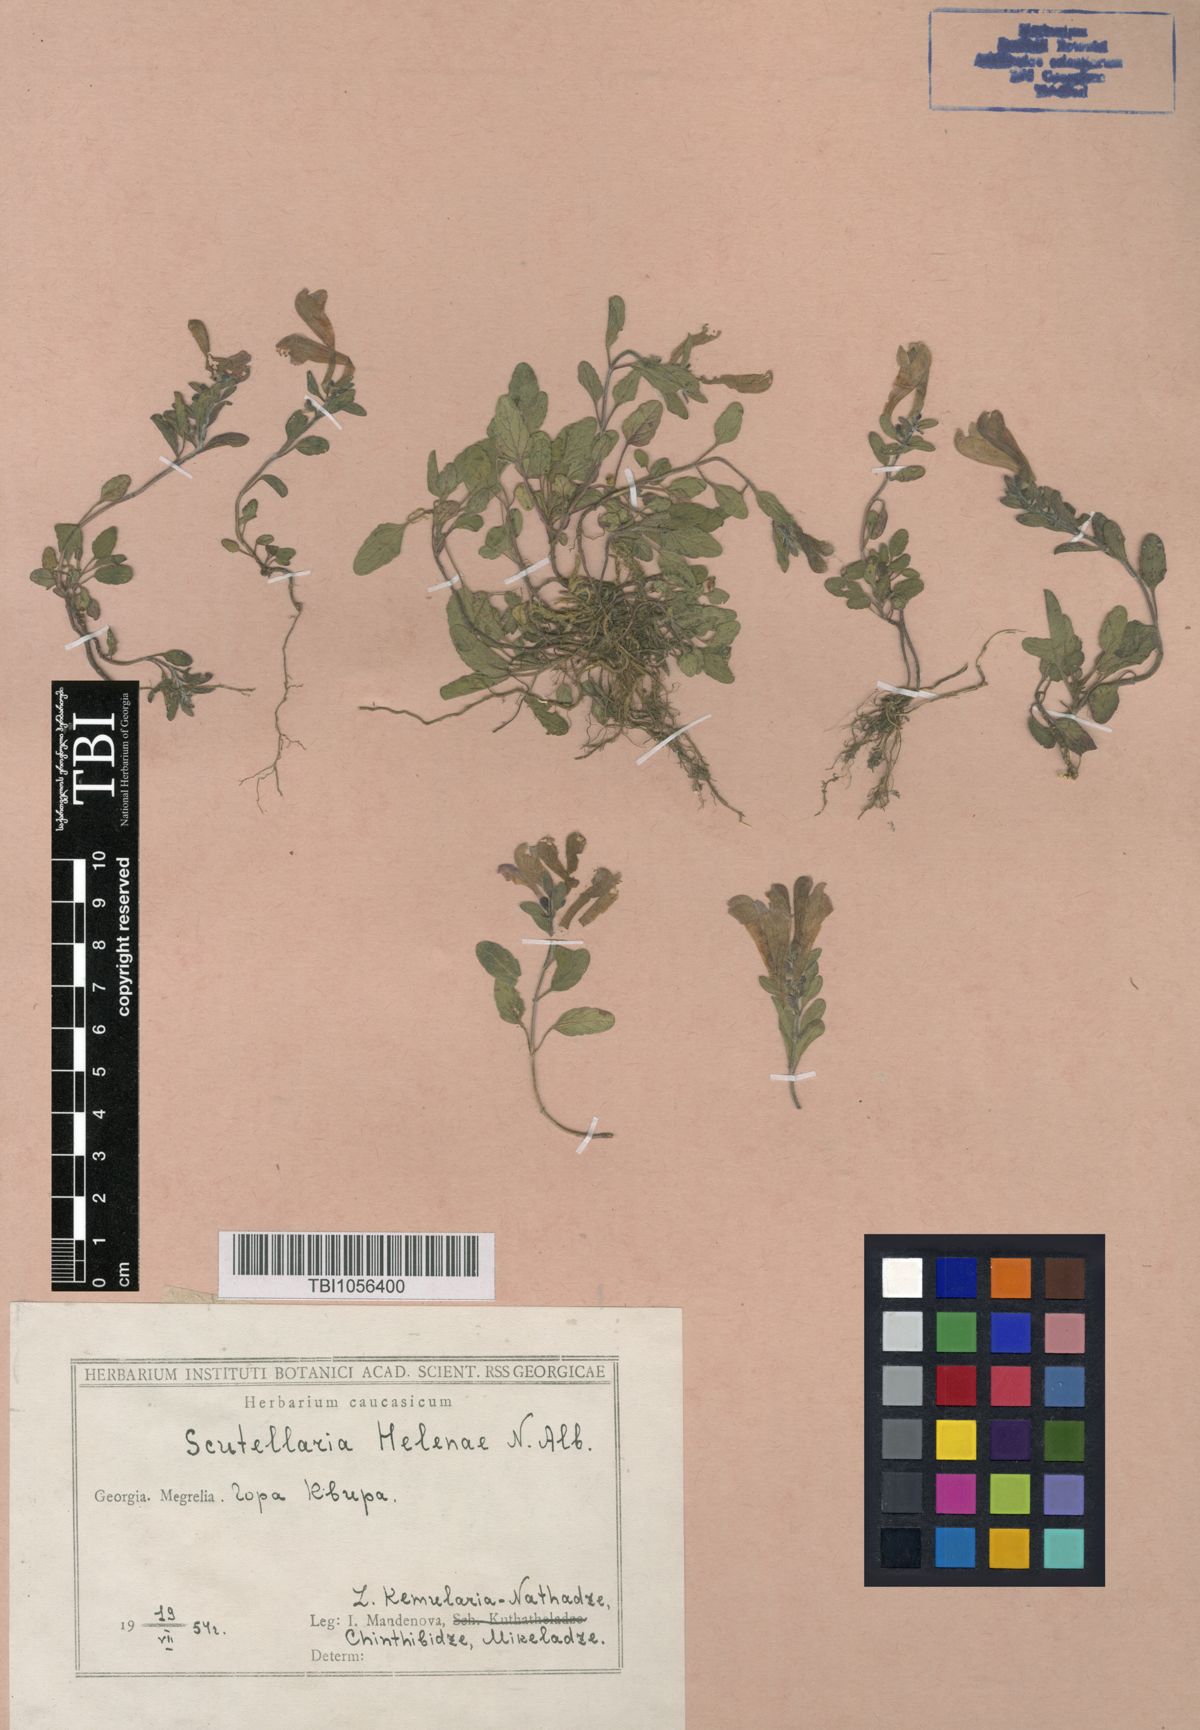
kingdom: Plantae
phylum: Tracheophyta
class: Magnoliopsida
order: Lamiales
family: Lamiaceae
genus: Scutellaria
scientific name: Scutellaria helenae
